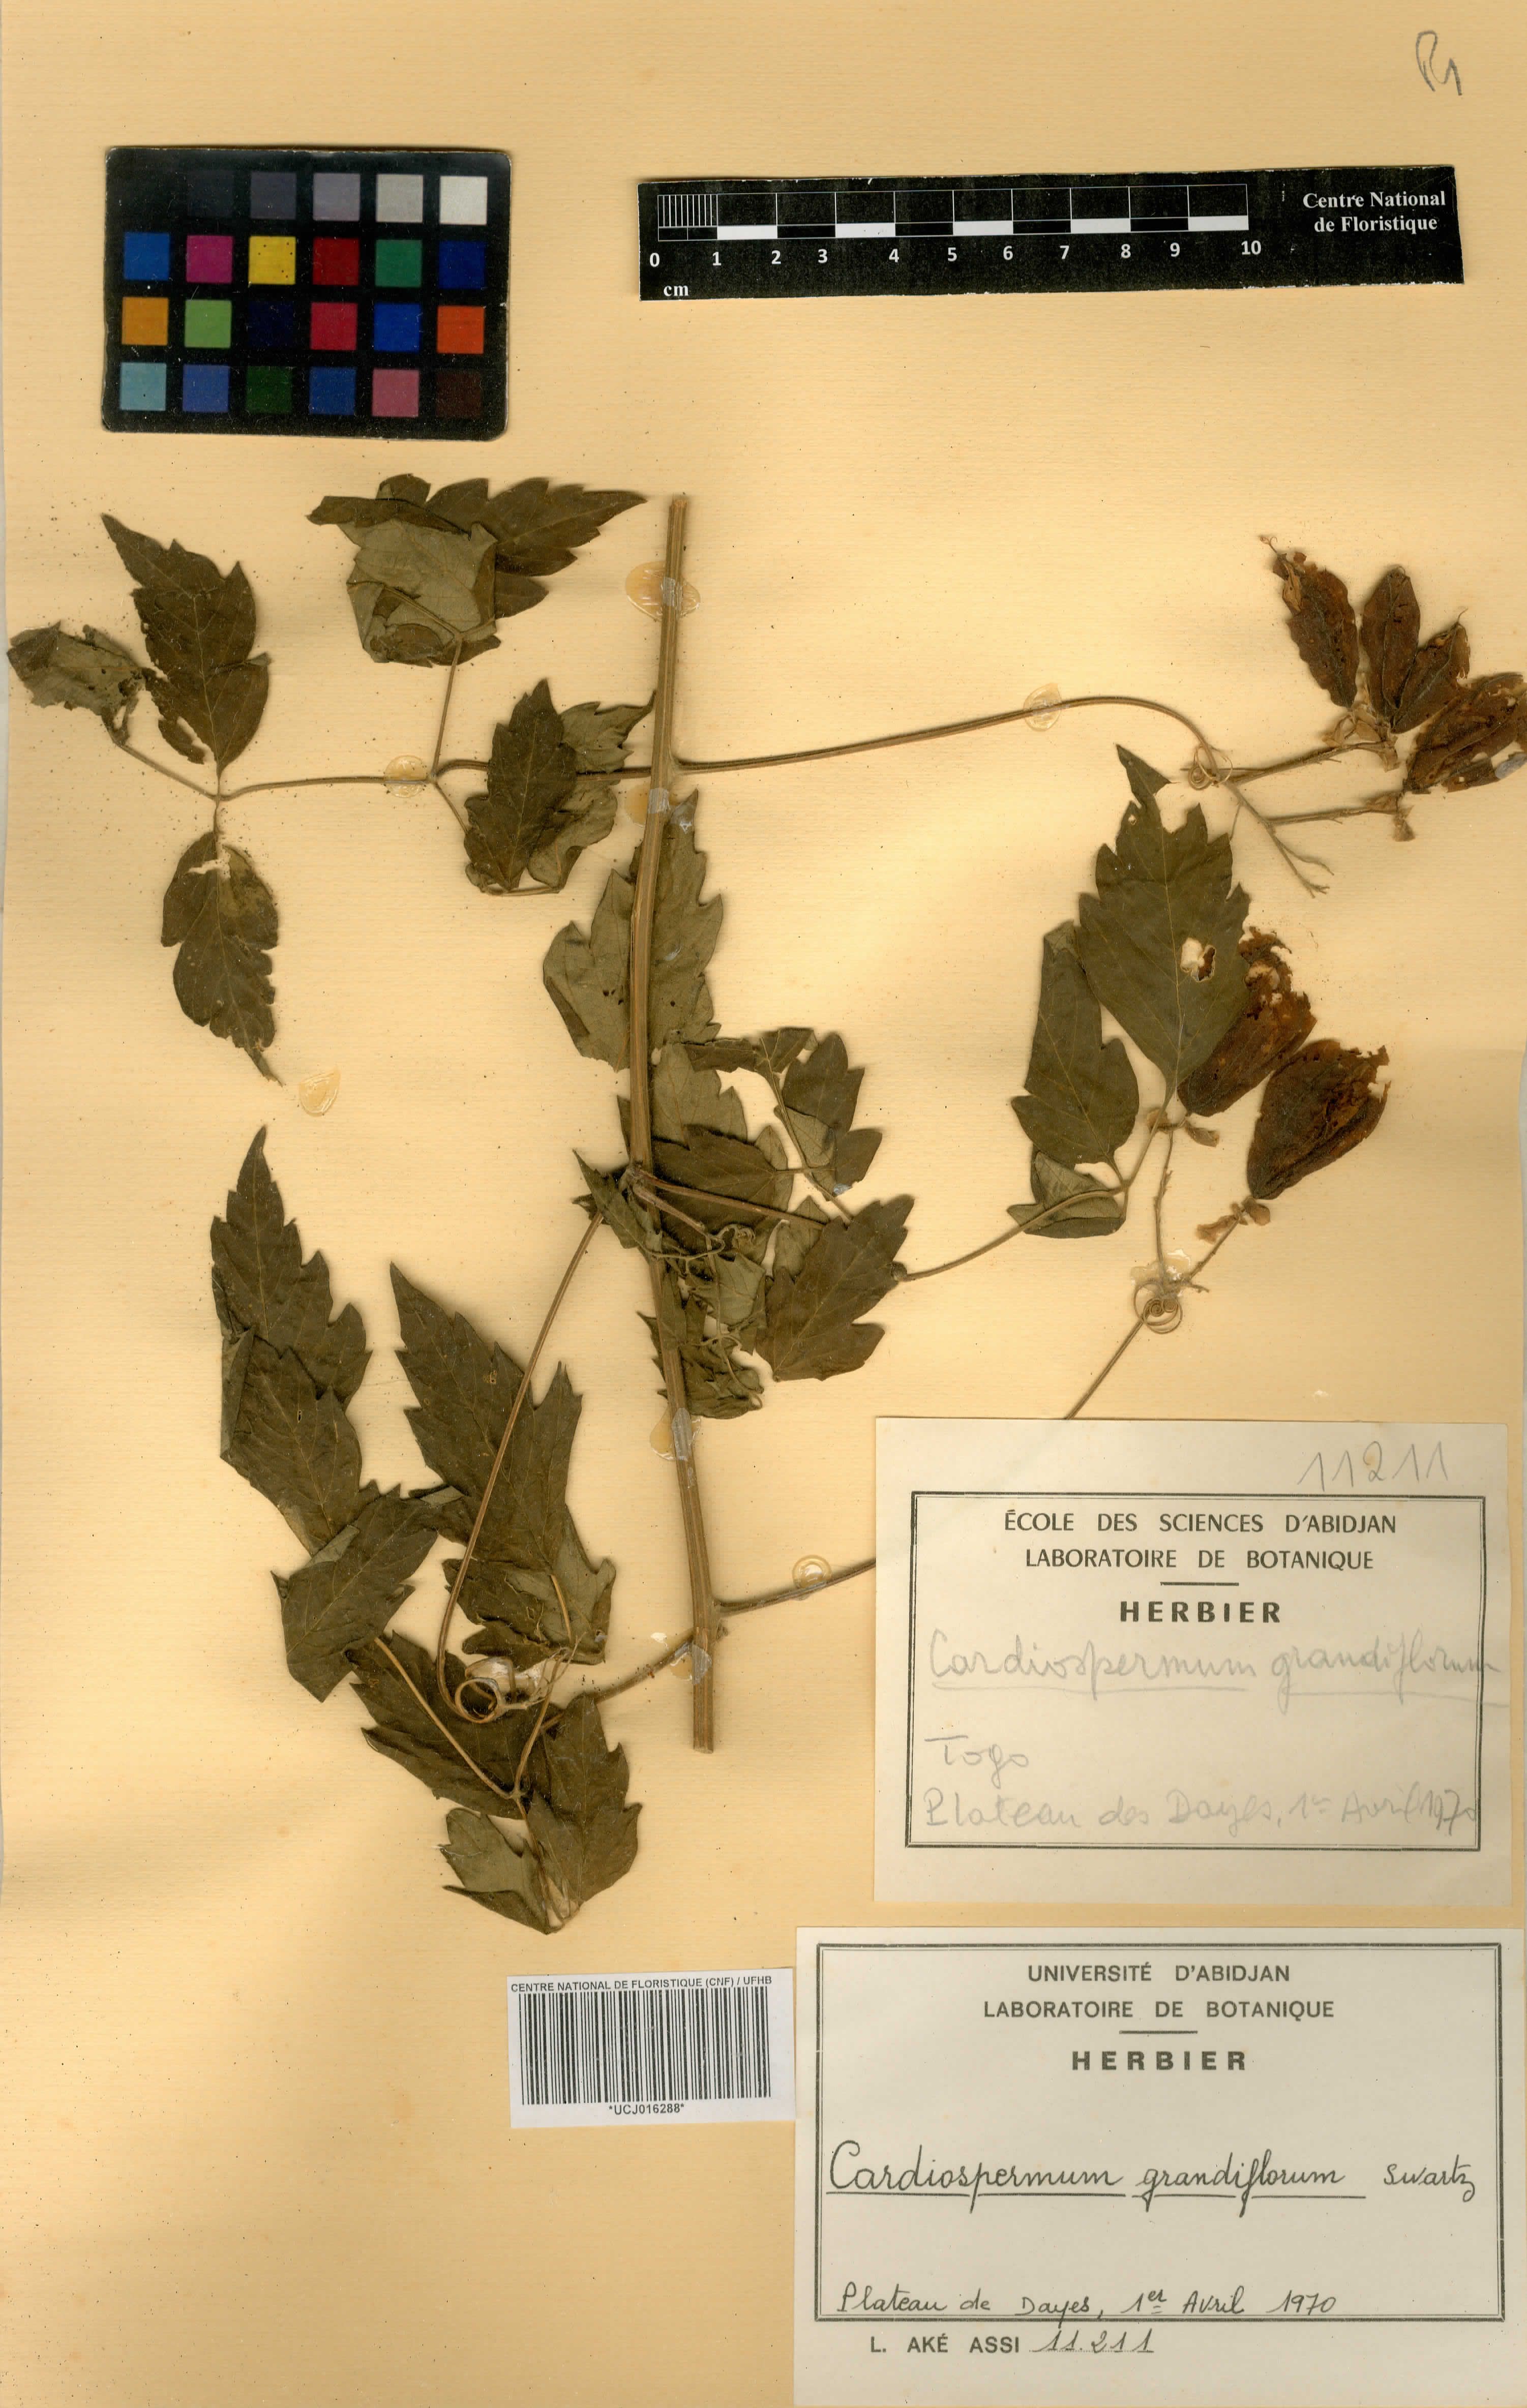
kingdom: Plantae
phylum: Tracheophyta
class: Magnoliopsida
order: Sapindales
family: Sapindaceae
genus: Cardiospermum
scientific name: Cardiospermum grandiflorum
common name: Balloon vine
